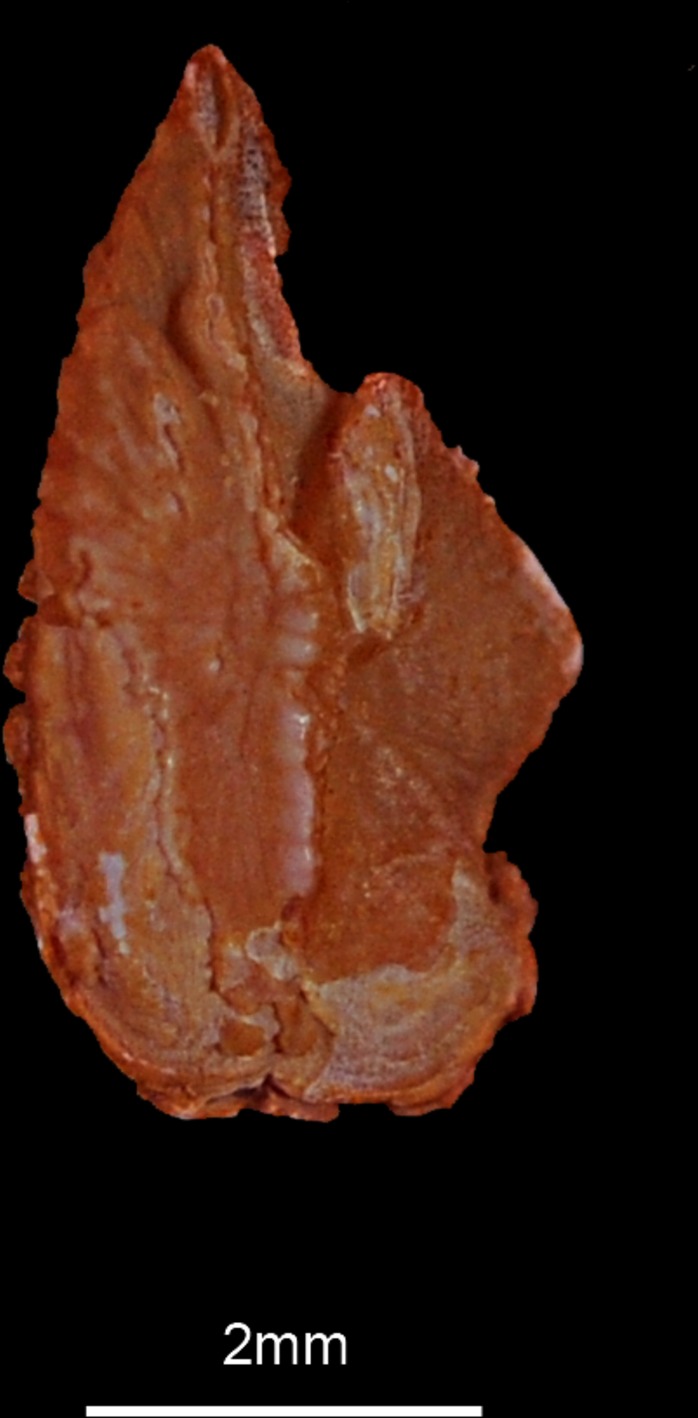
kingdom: Animalia
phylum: Chordata
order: Perciformes
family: Anarhichadidae
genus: Anarhichas
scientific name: Anarhichas lupus
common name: Wolf-fish
